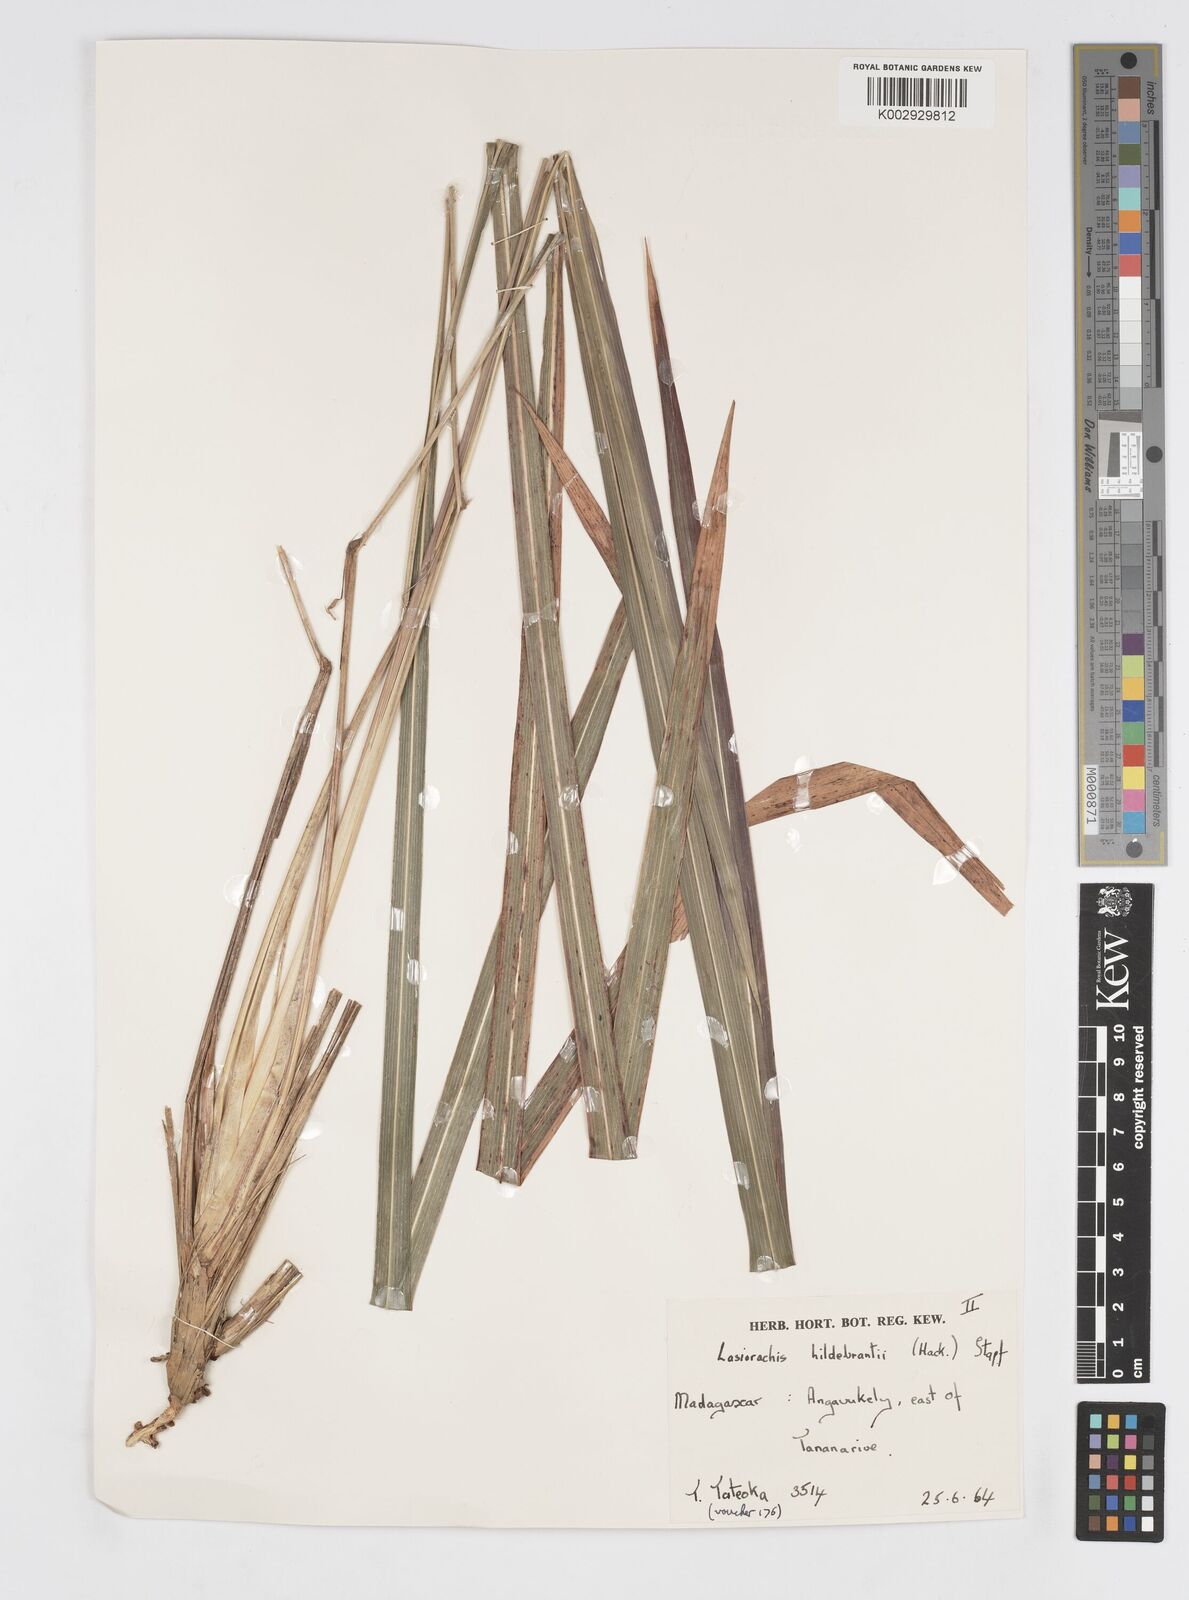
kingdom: Plantae
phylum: Tracheophyta
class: Liliopsida
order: Poales
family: Poaceae
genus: Lasiorhachis
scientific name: Lasiorhachis hildebrandtii
